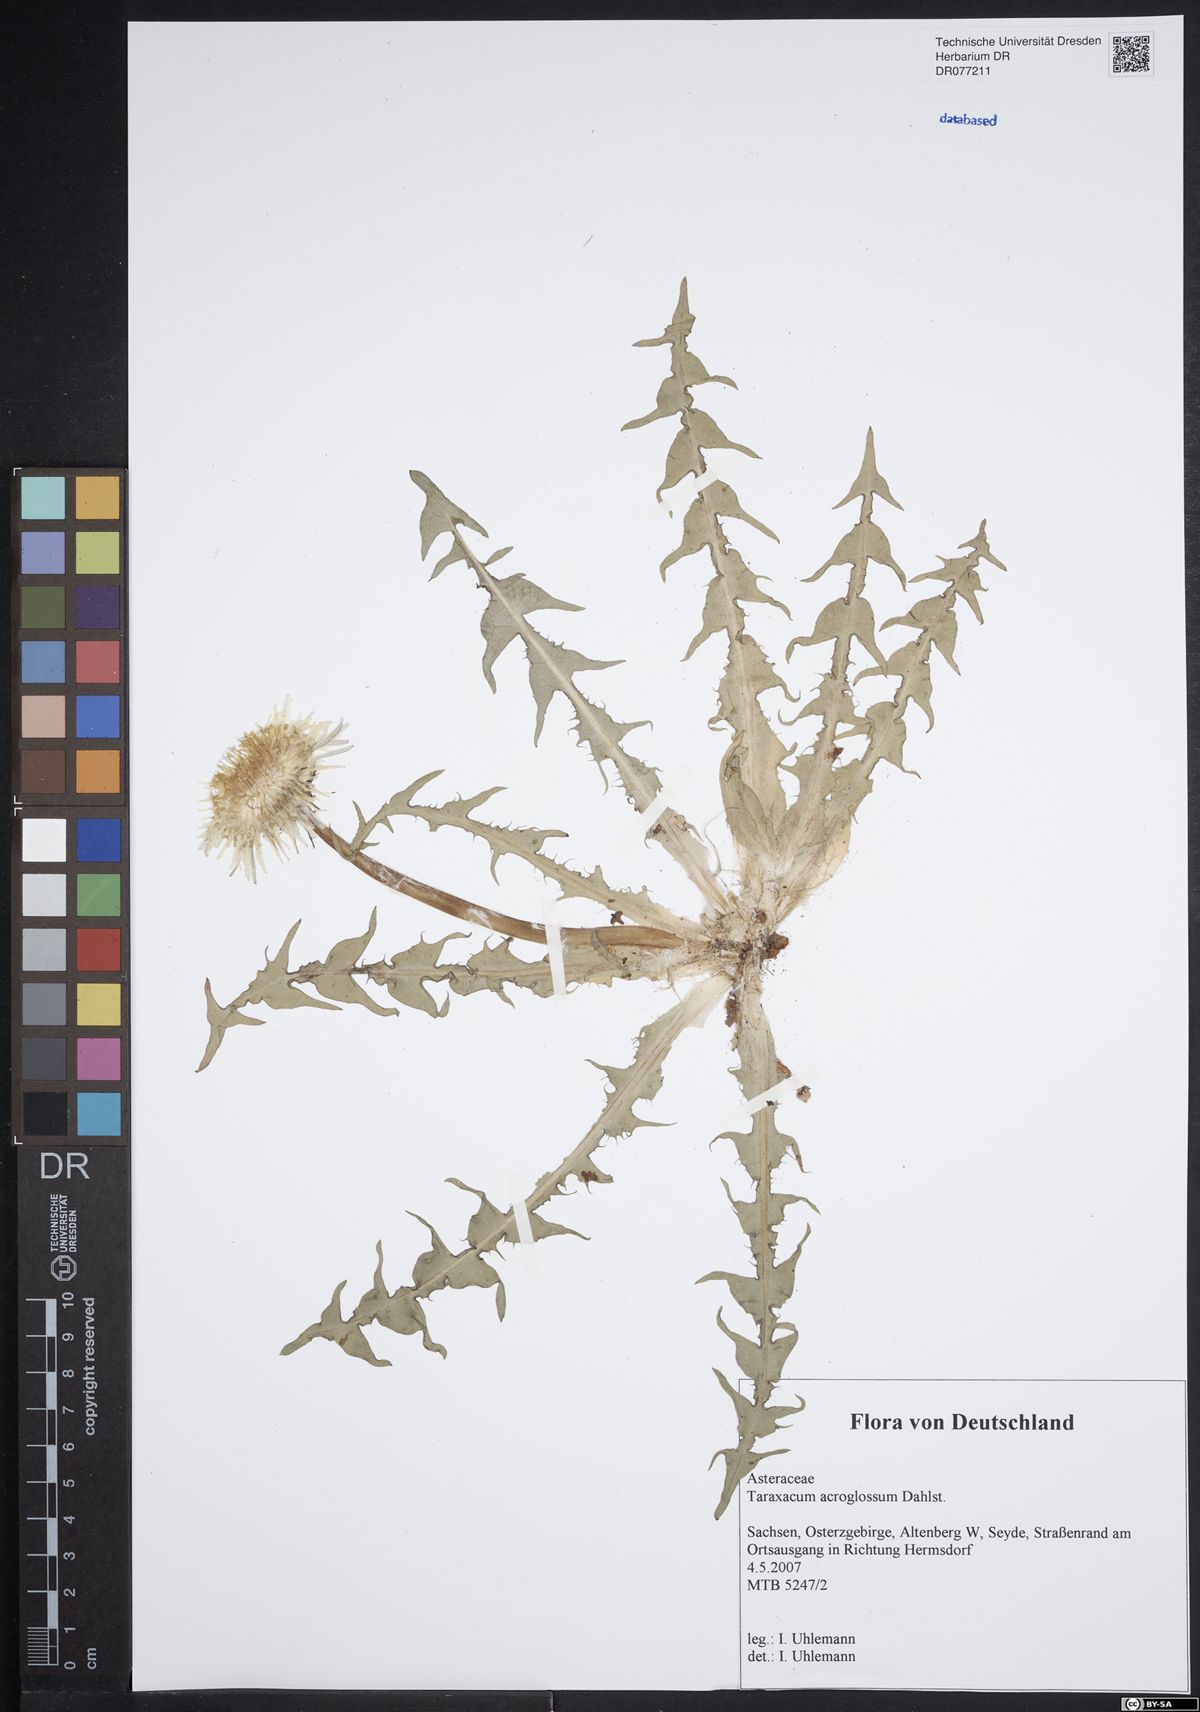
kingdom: Plantae
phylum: Tracheophyta
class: Magnoliopsida
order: Asterales
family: Asteraceae
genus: Taraxacum
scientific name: Taraxacum acroglossum
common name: Broad-bracted dandelion
